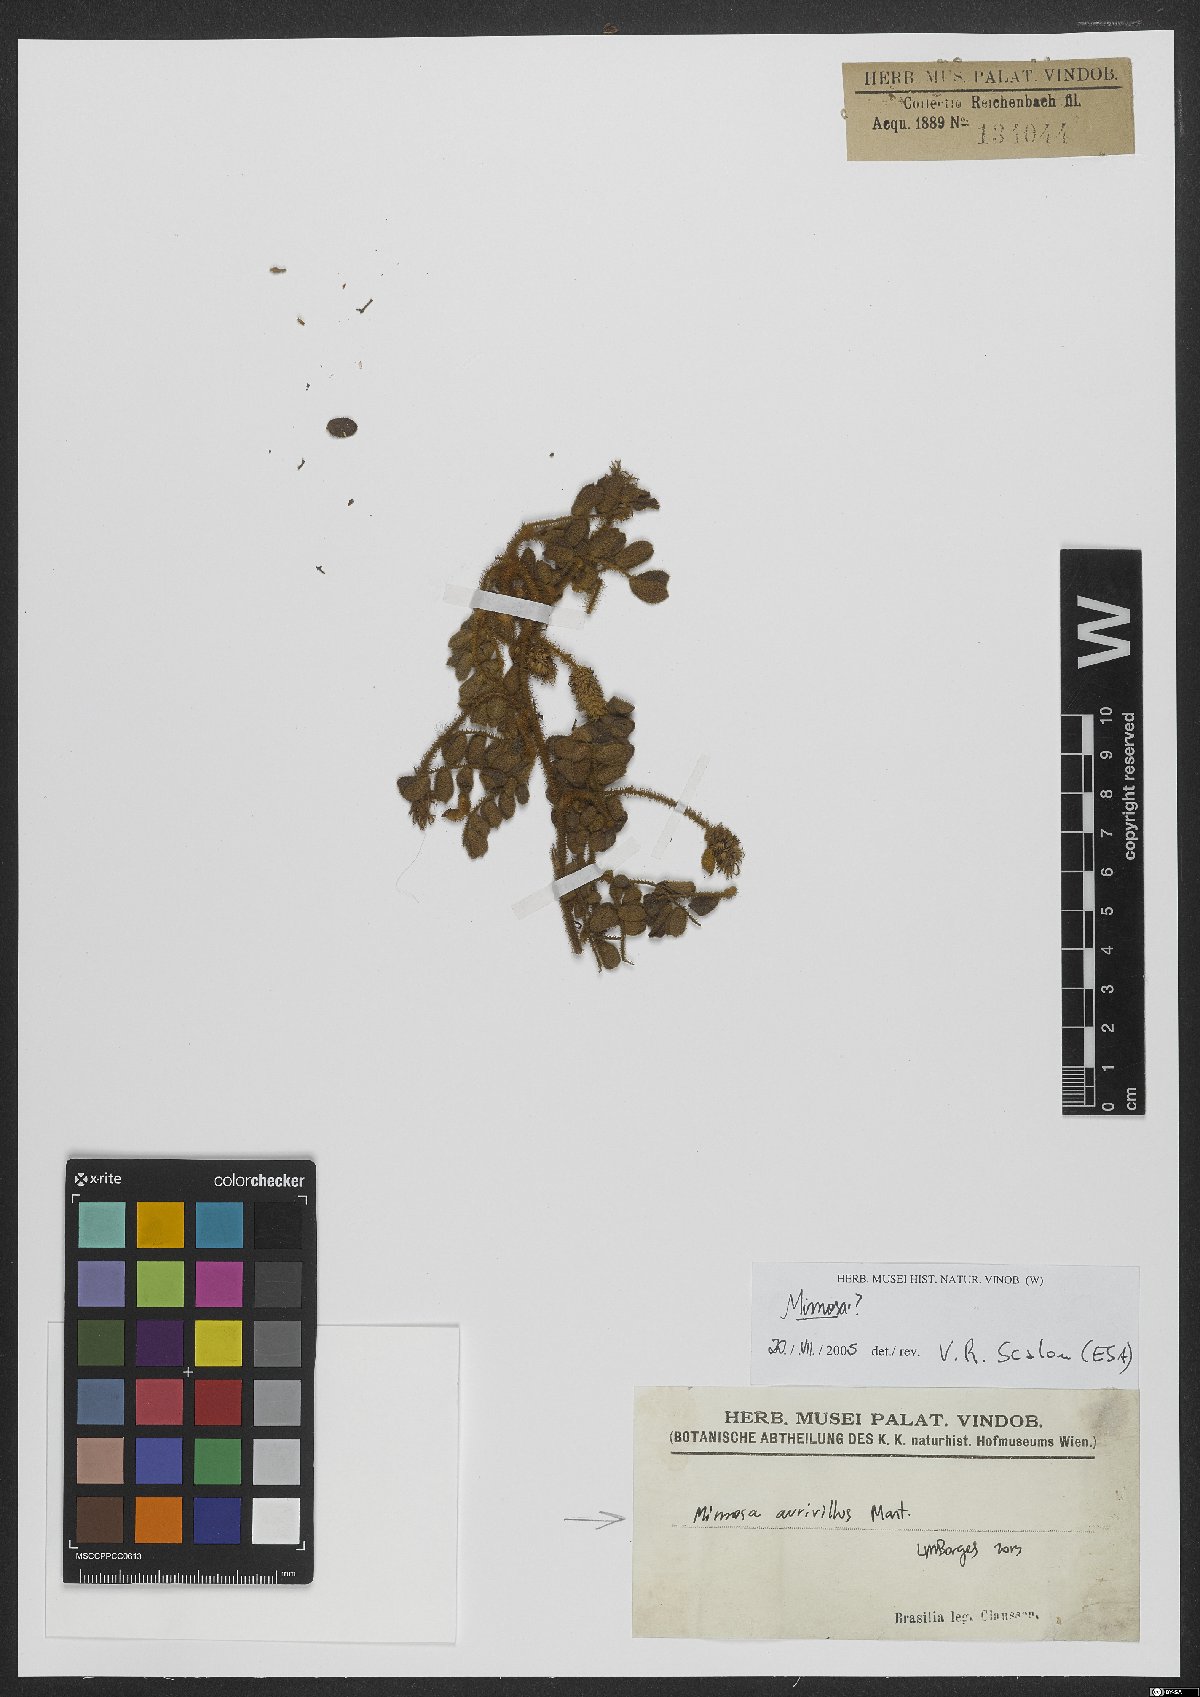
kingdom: Plantae
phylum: Tracheophyta
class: Magnoliopsida
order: Fabales
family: Fabaceae
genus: Mimosa
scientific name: Mimosa aurivillus
